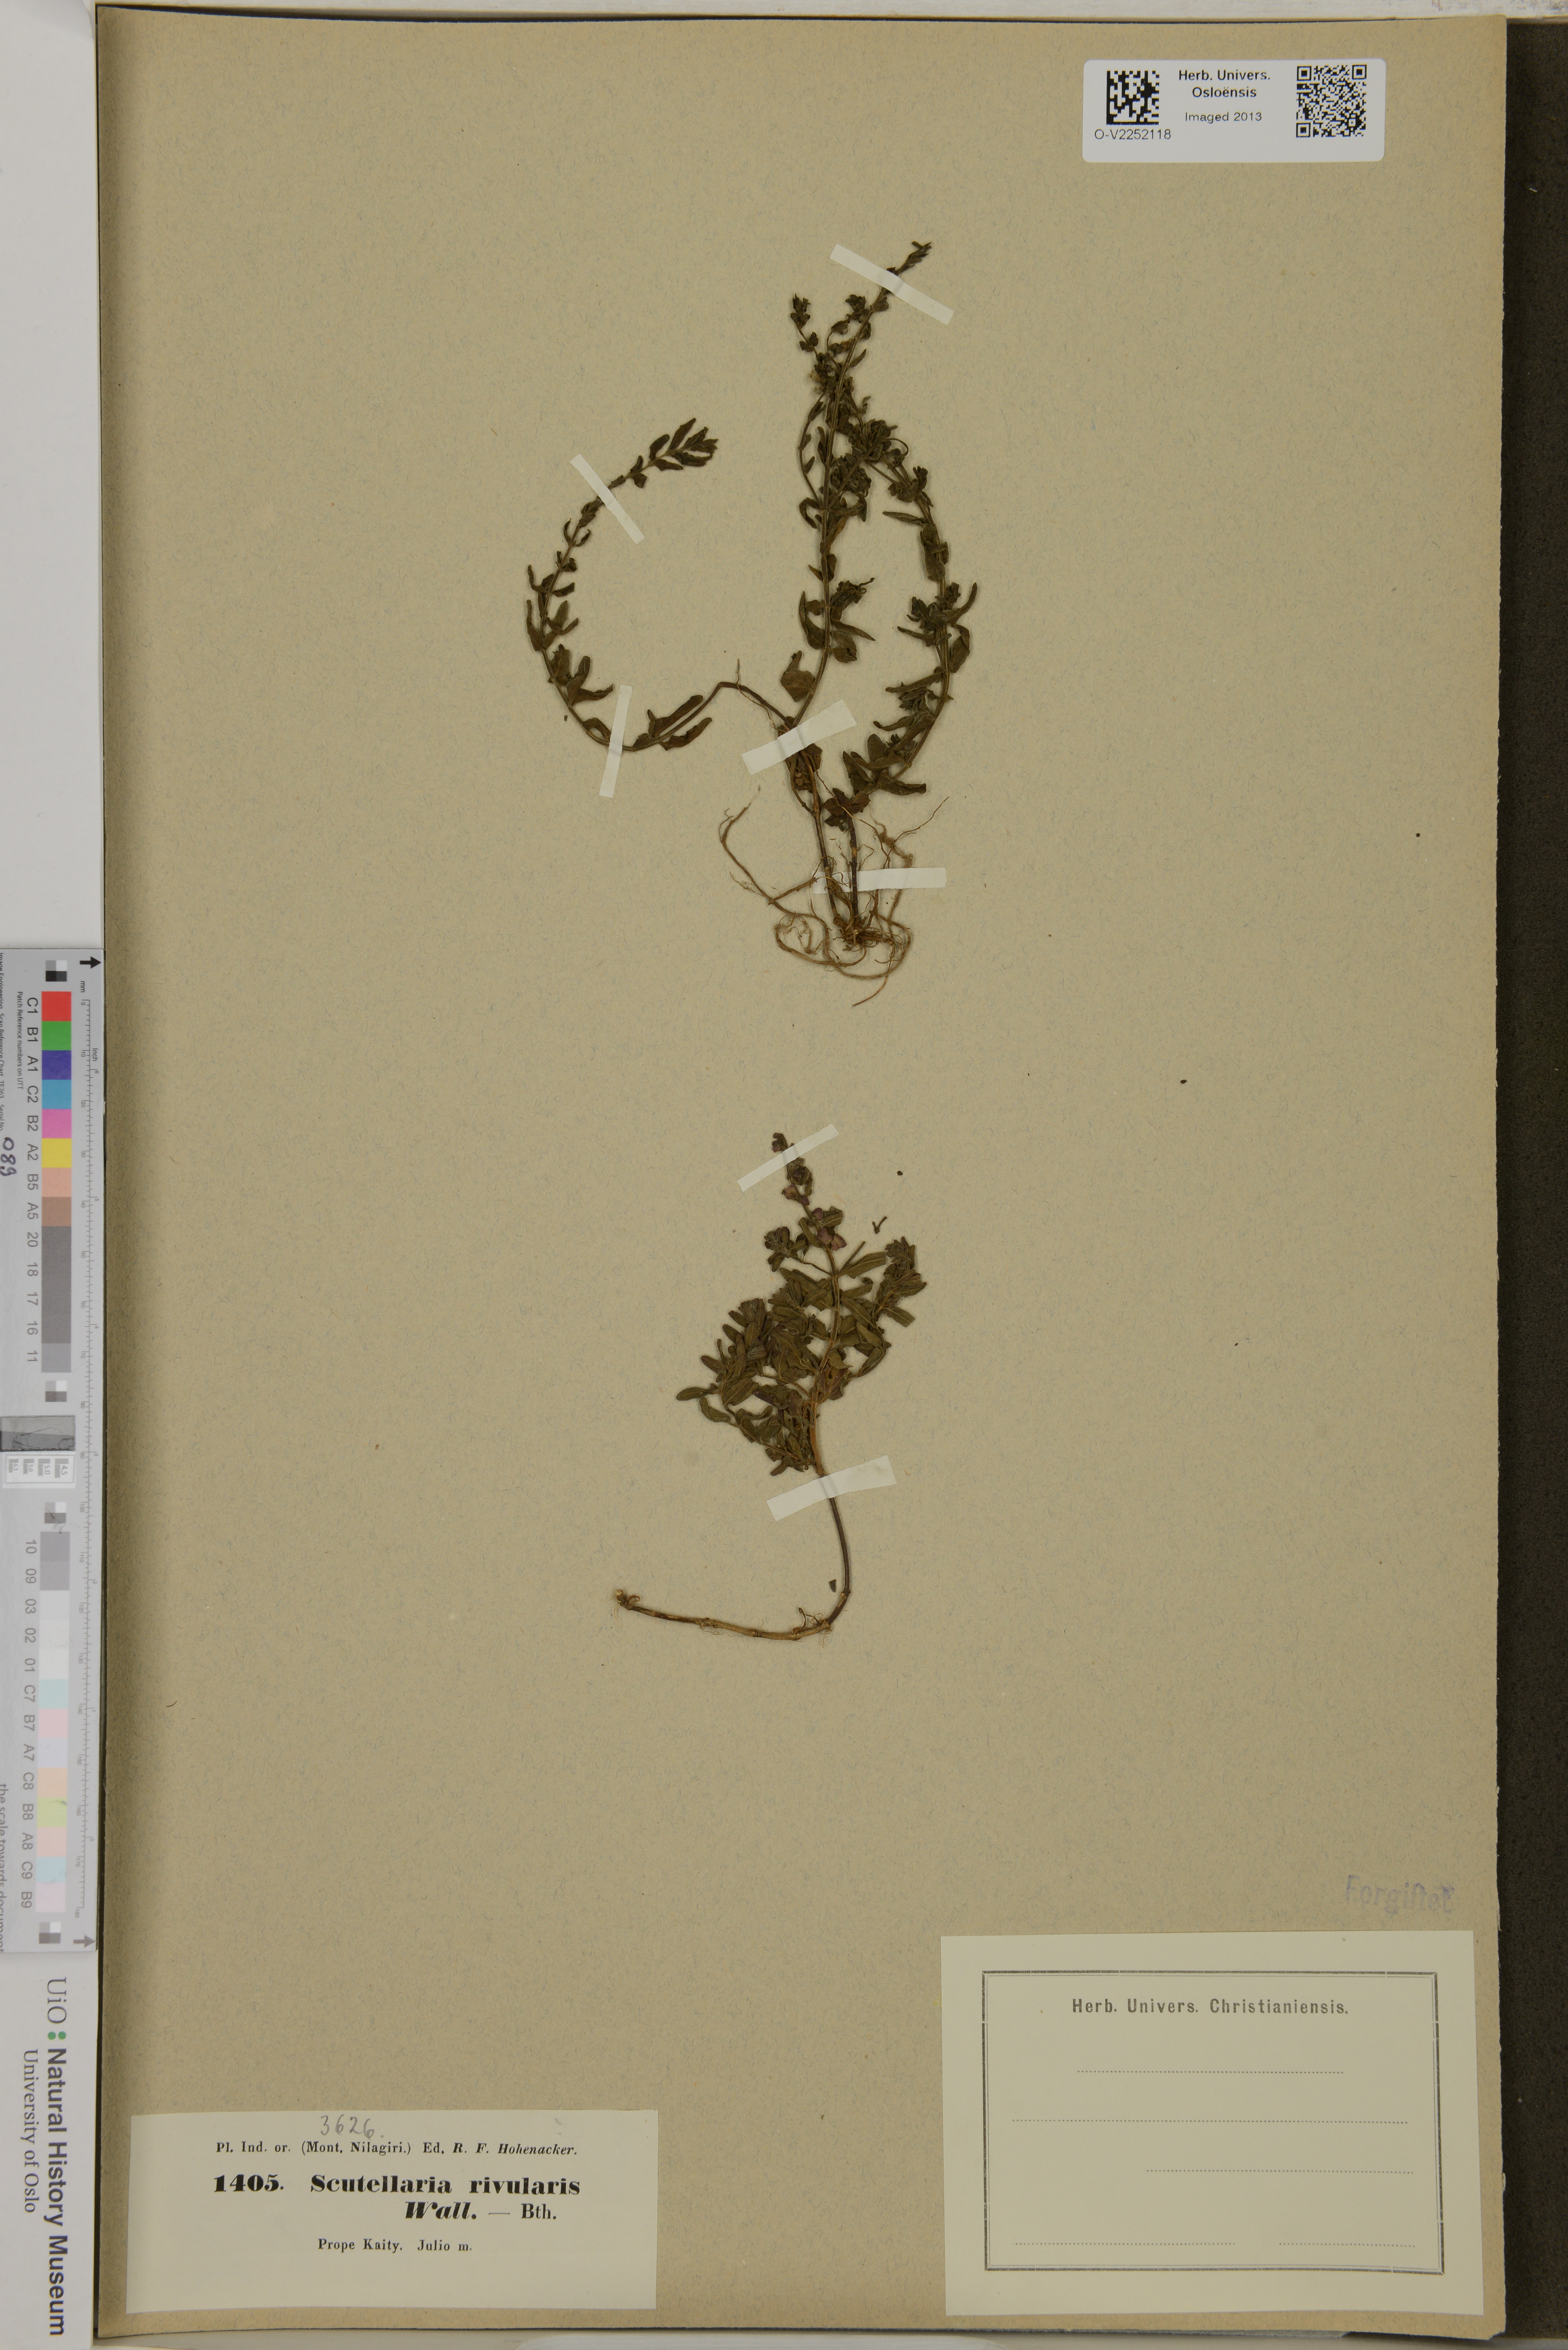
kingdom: Plantae
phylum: Tracheophyta
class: Magnoliopsida
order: Lamiales
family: Lamiaceae
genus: Scutellaria
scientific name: Scutellaria rivularis
